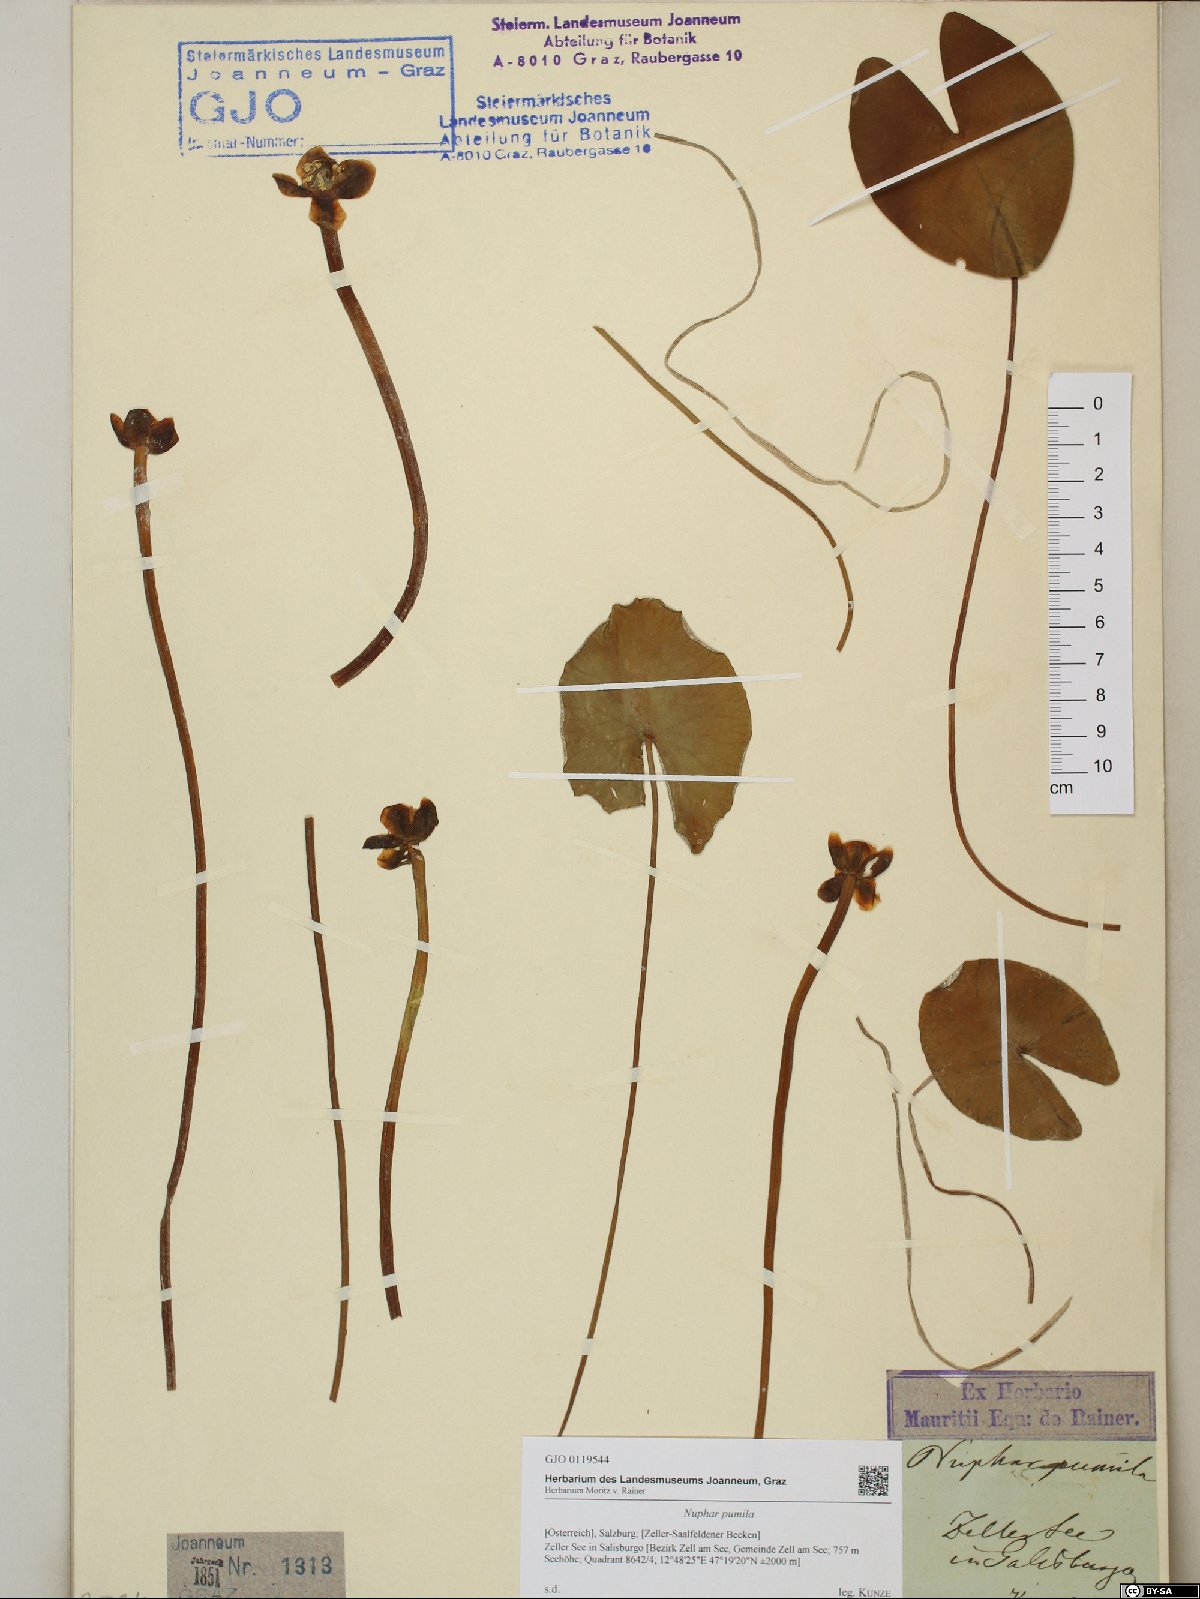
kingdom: Plantae
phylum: Tracheophyta
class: Magnoliopsida
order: Nymphaeales
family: Nymphaeaceae
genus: Nuphar
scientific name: Nuphar pumila
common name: Least water-lily
